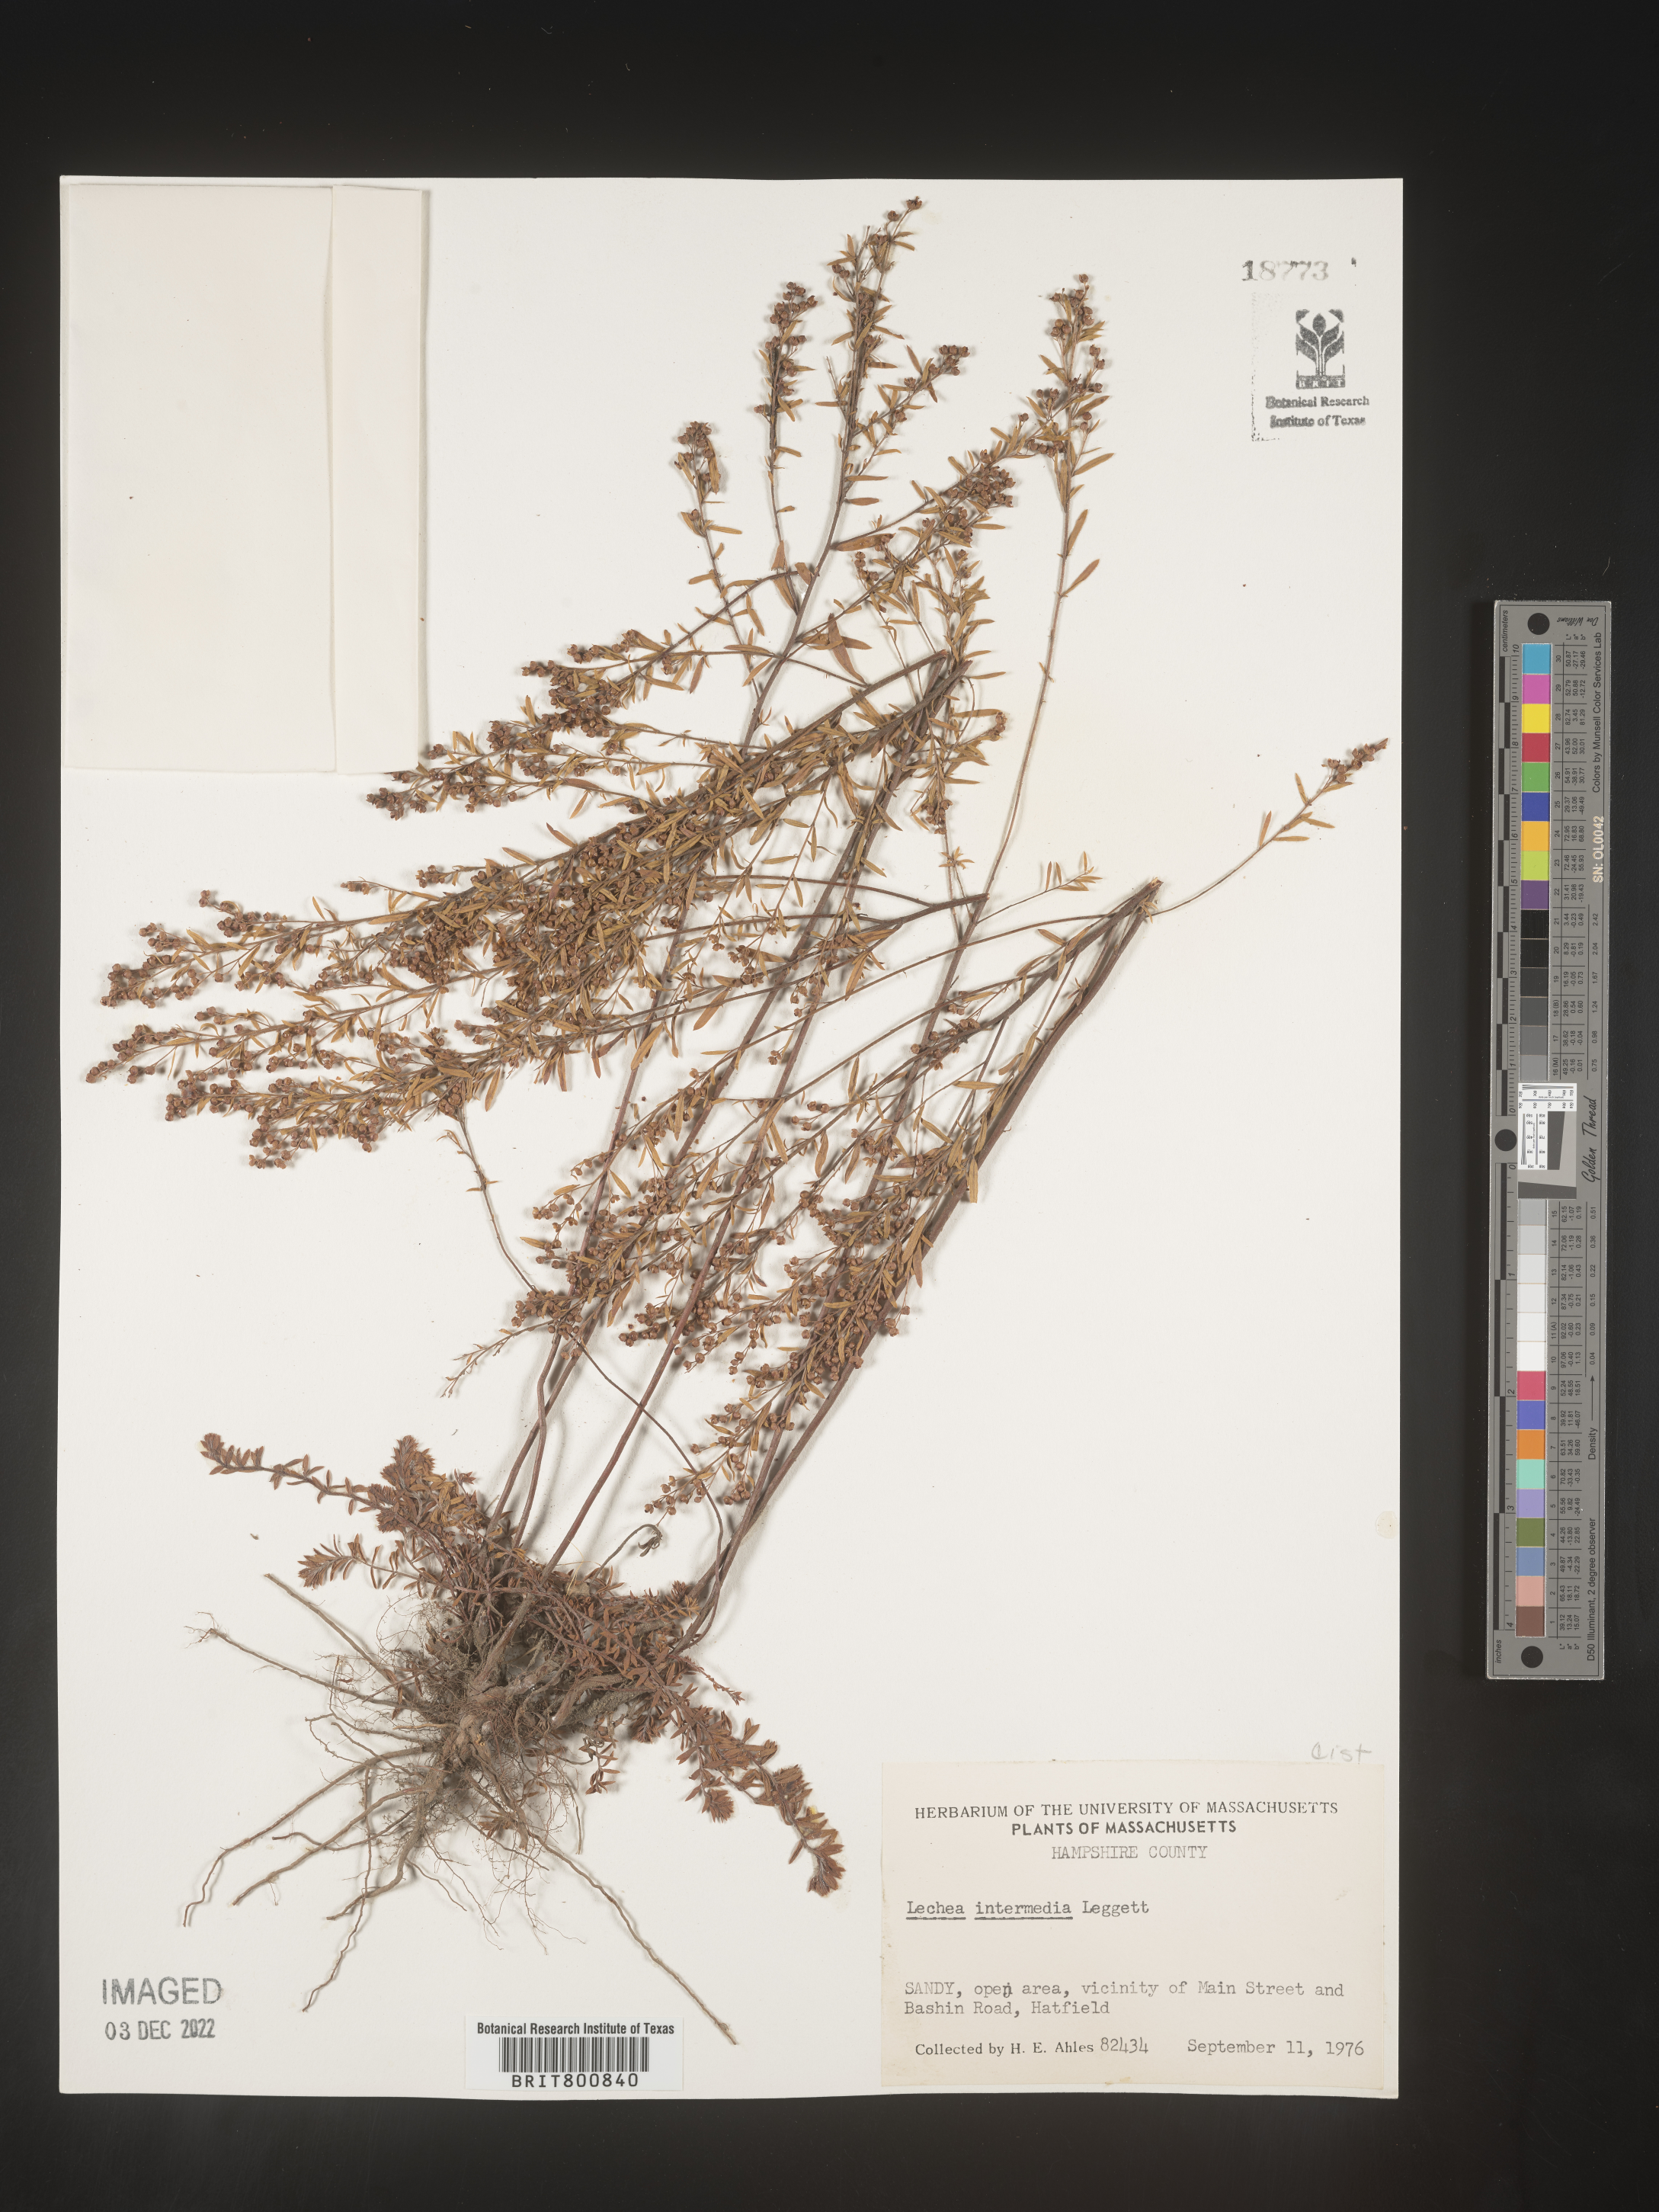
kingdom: Plantae
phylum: Tracheophyta
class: Magnoliopsida
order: Malvales
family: Cistaceae
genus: Lechea
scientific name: Lechea intermedia
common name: Intermediate pinweed
